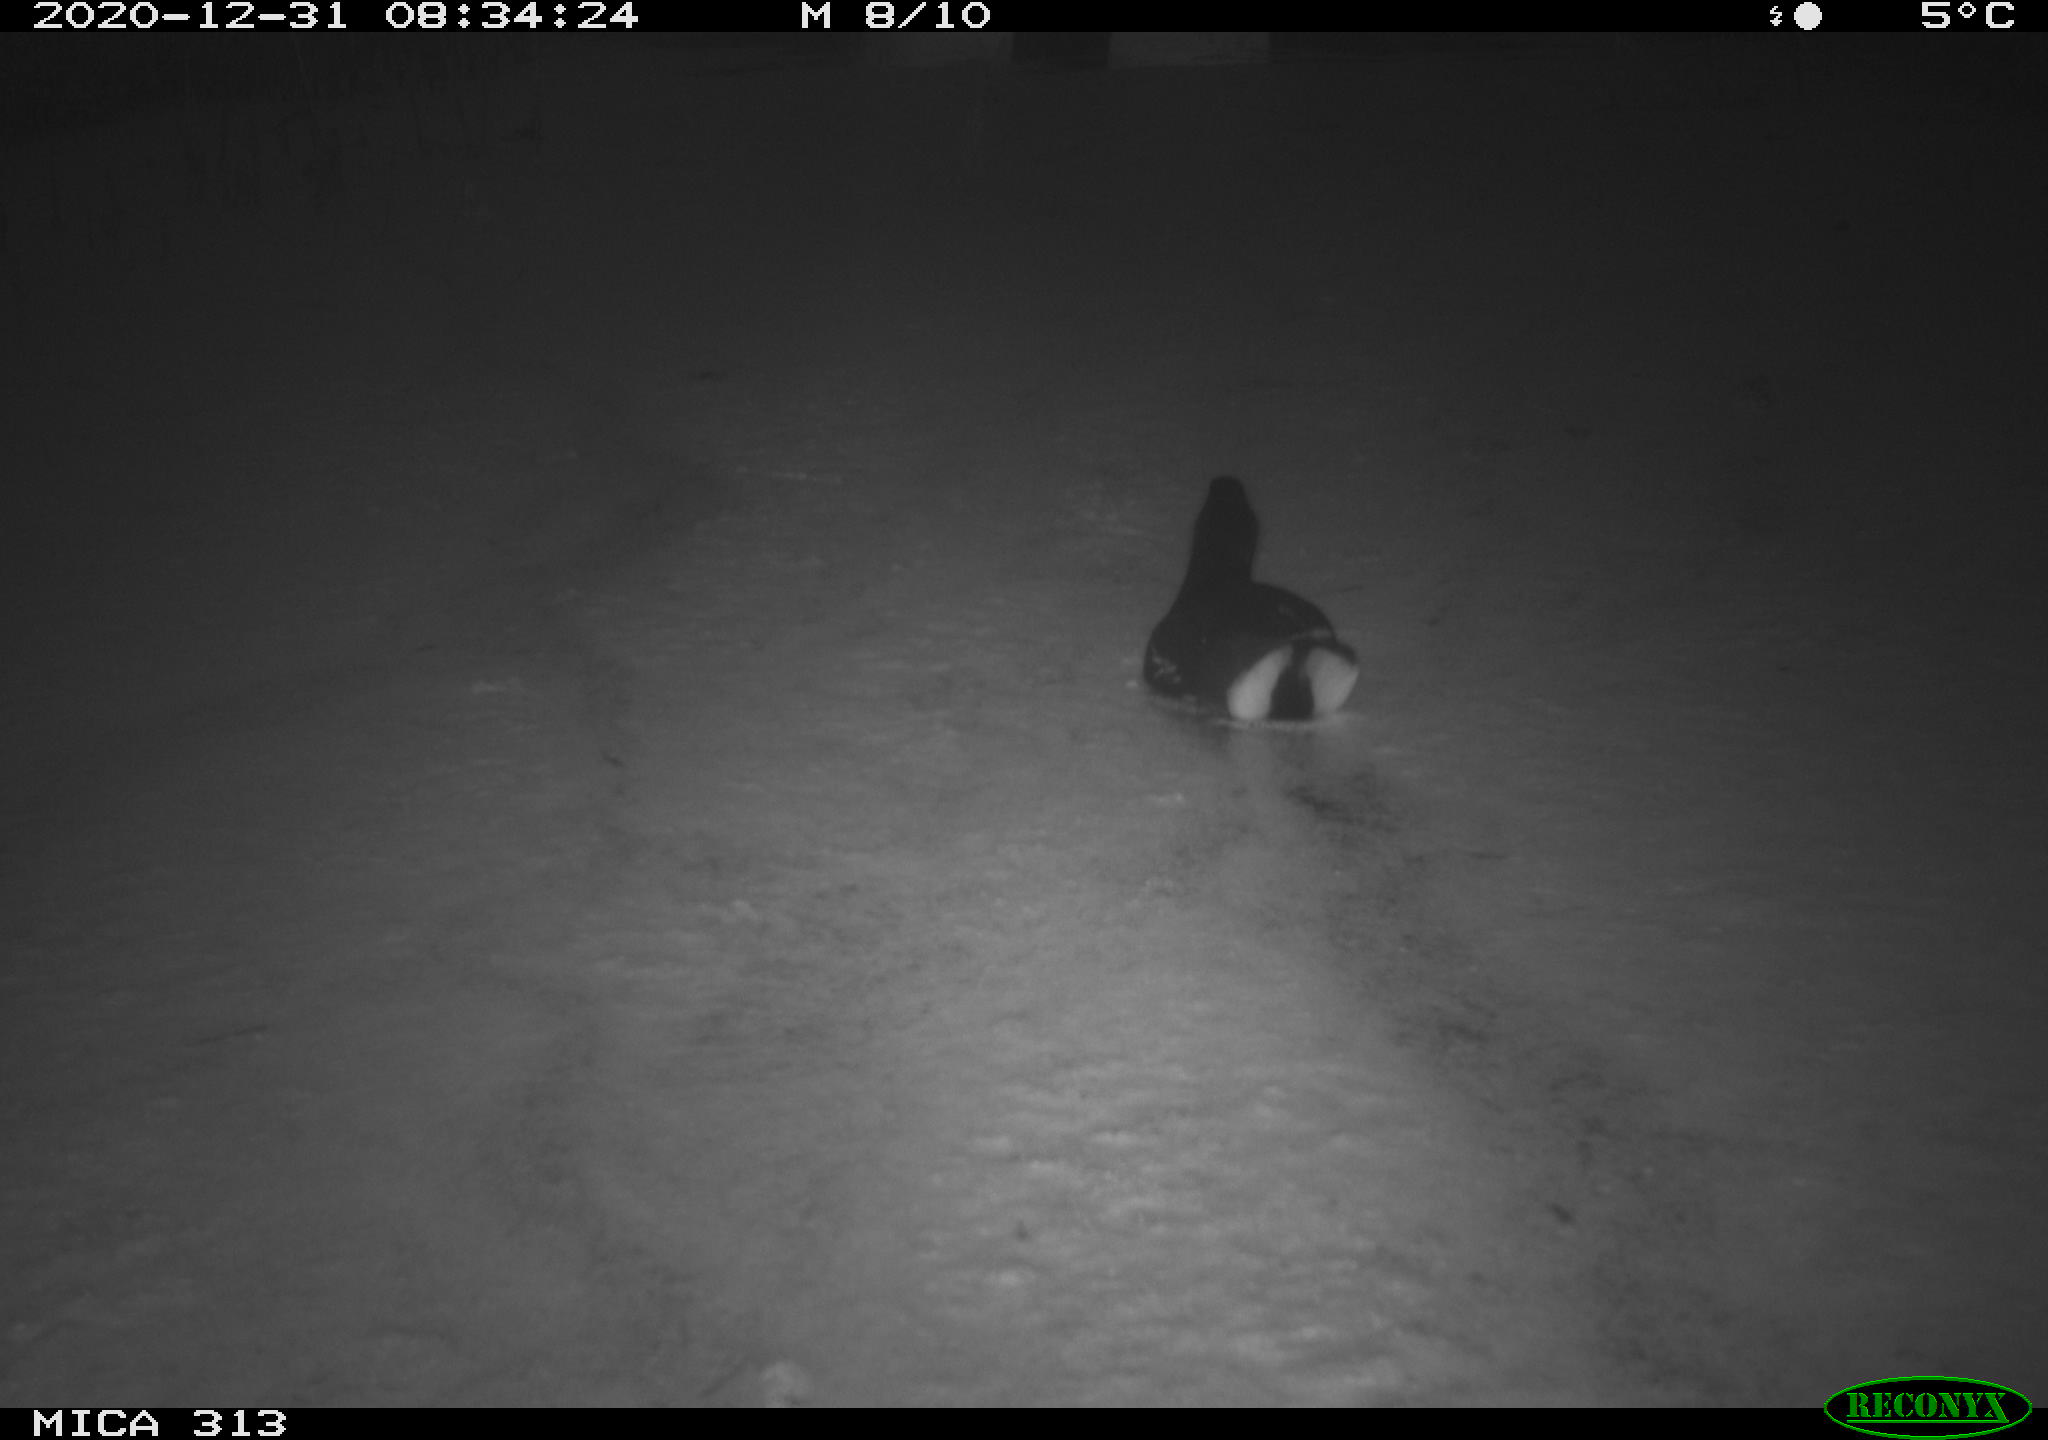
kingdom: Animalia
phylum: Chordata
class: Aves
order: Gruiformes
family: Rallidae
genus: Fulica
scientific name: Fulica atra
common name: Eurasian coot
